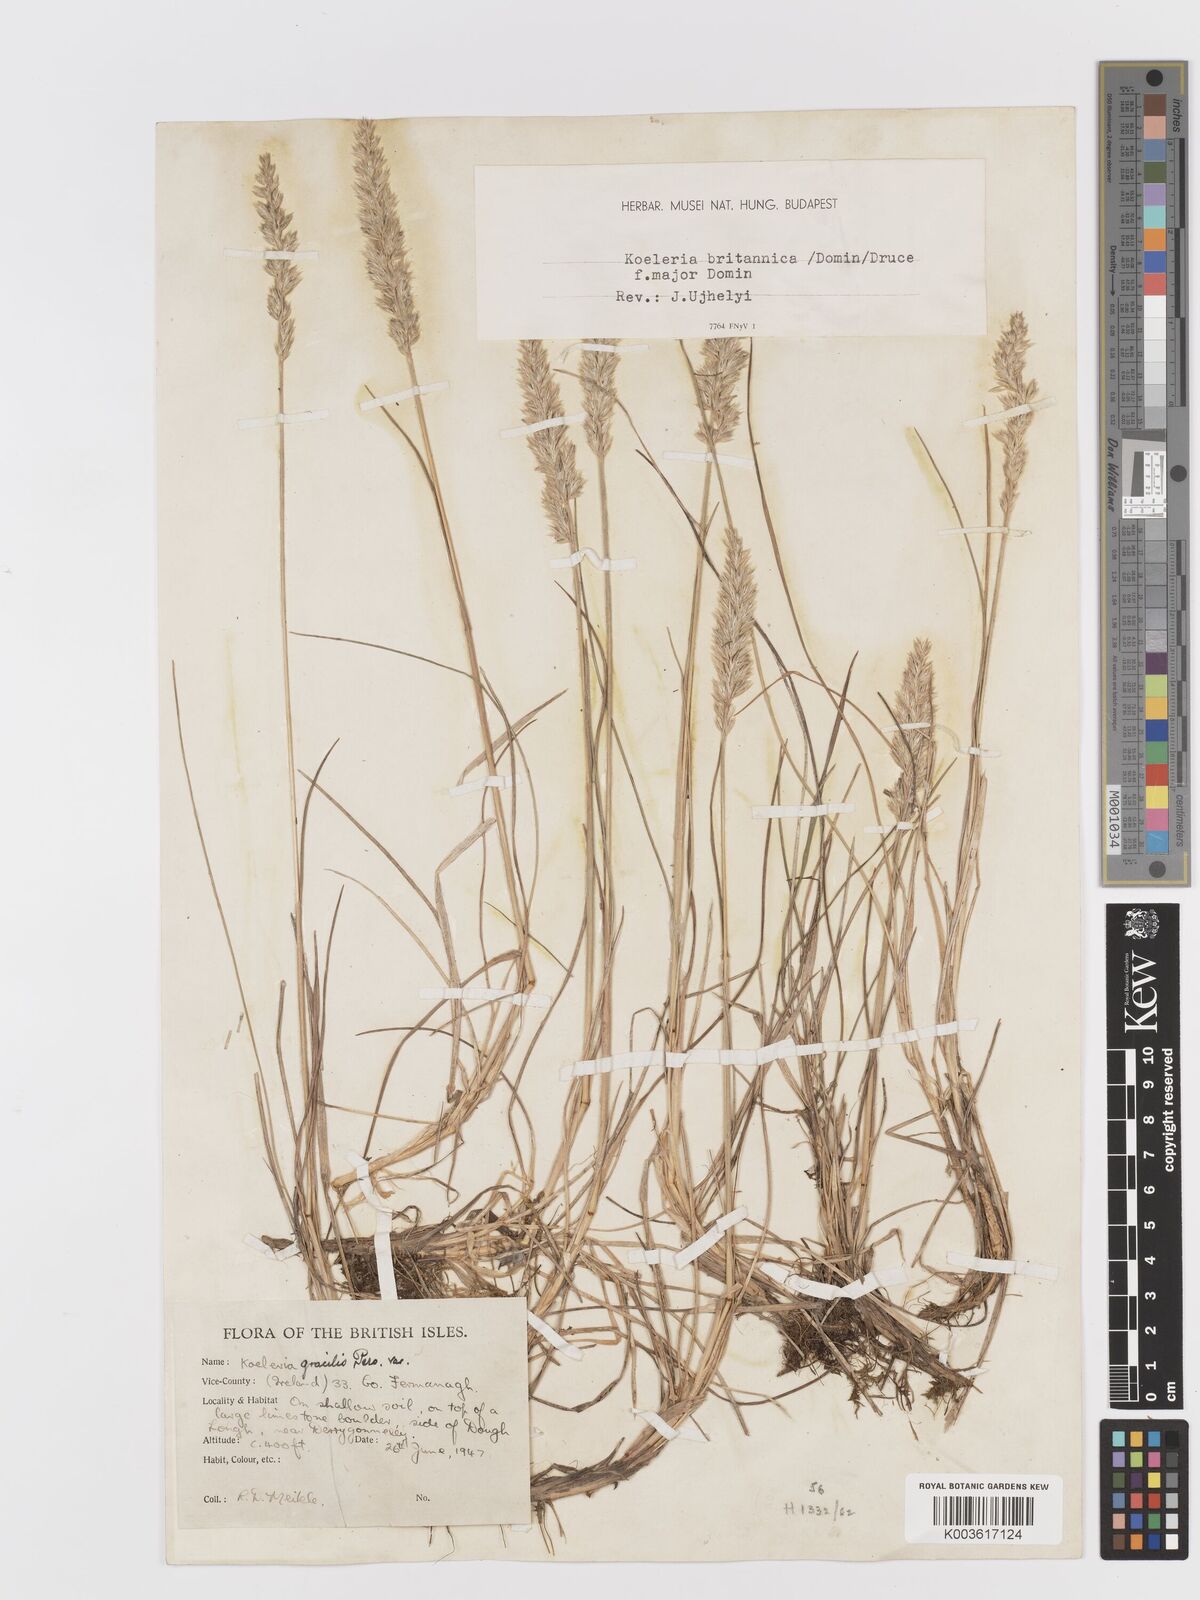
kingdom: Plantae
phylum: Tracheophyta
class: Liliopsida
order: Poales
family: Poaceae
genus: Koeleria
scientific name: Koeleria macrantha
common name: Crested hair-grass
